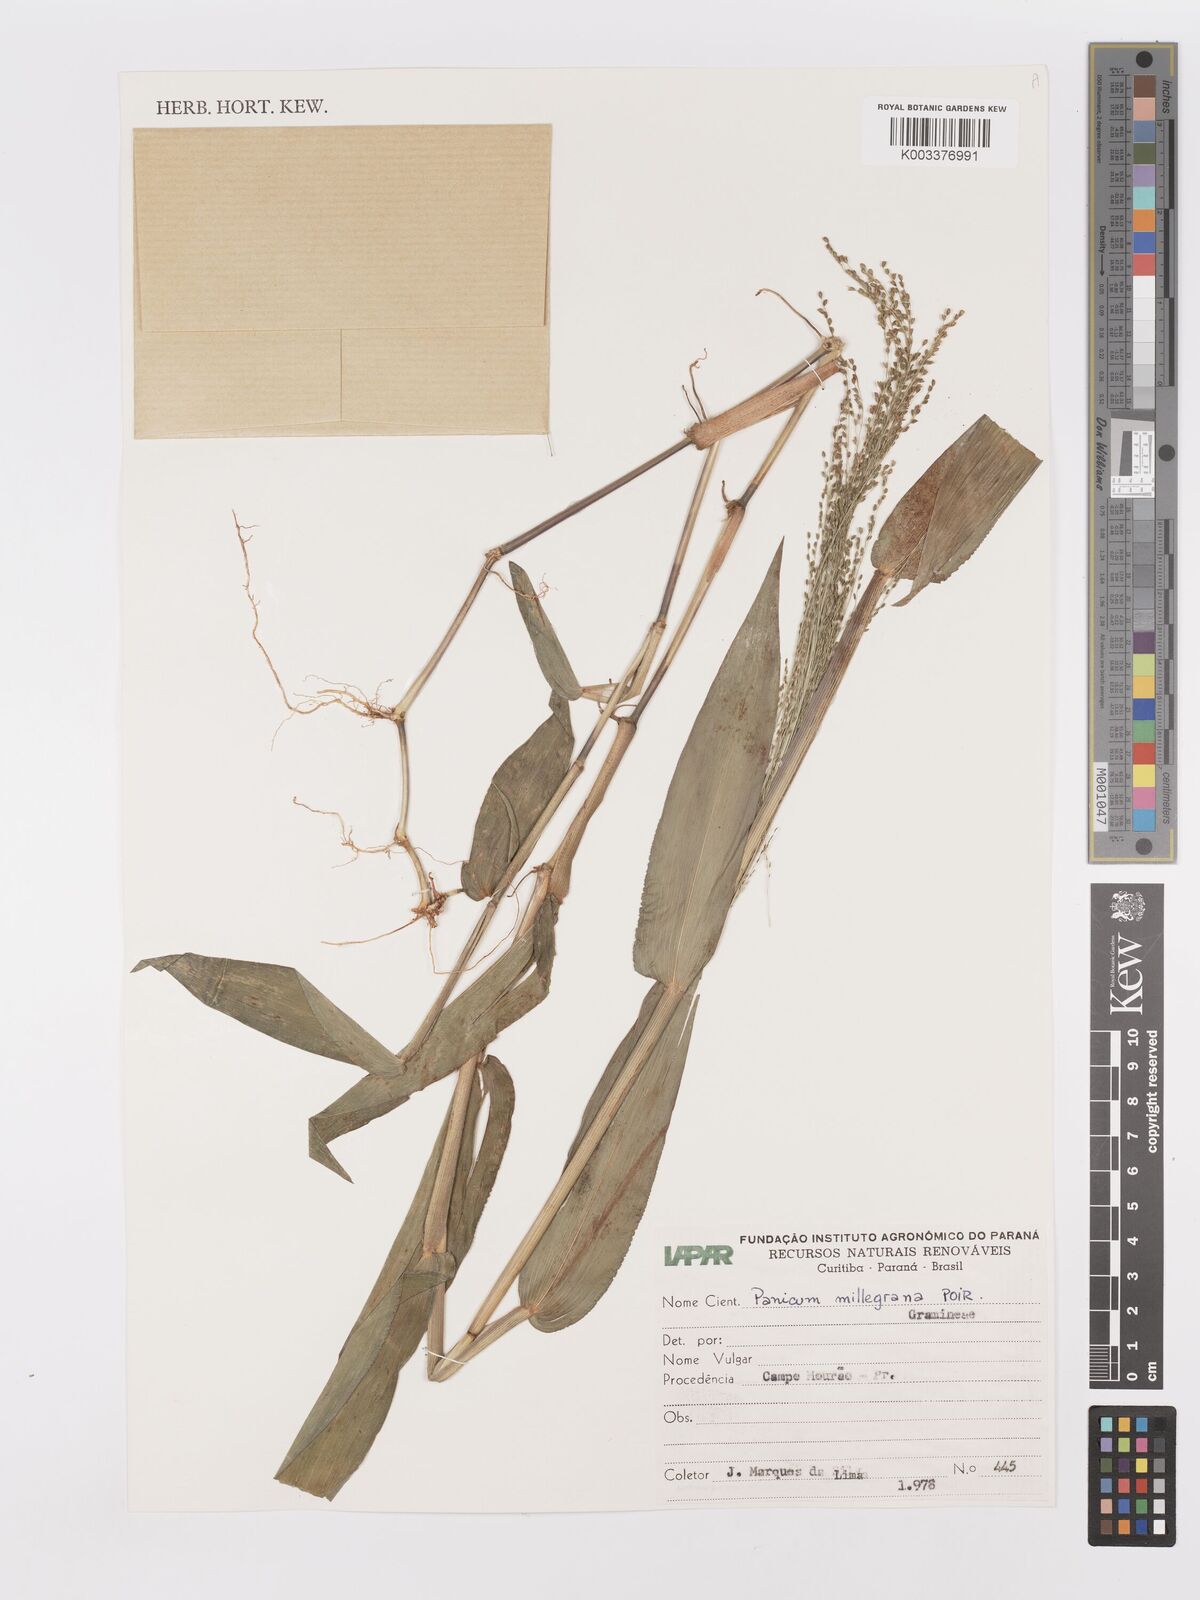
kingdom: Plantae
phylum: Tracheophyta
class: Liliopsida
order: Poales
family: Poaceae
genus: Panicum
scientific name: Panicum millegrana
